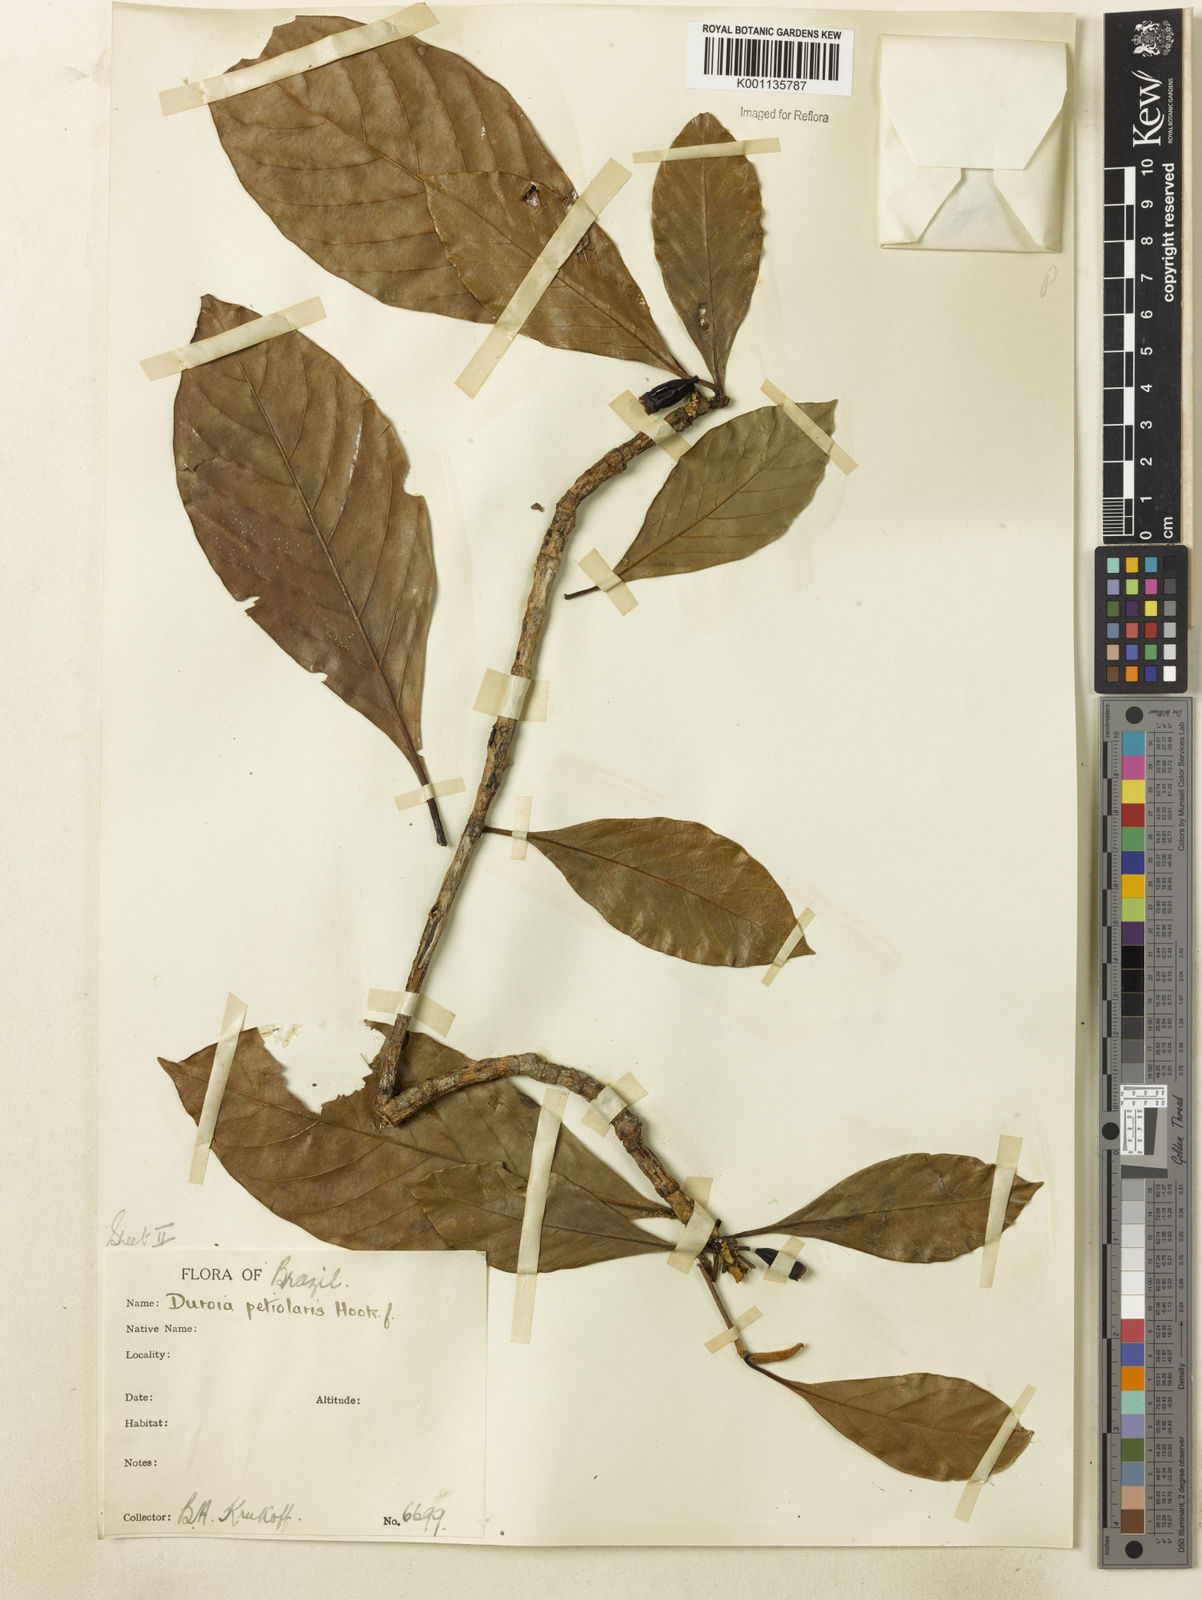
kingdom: Plantae
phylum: Tracheophyta
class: Magnoliopsida
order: Gentianales
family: Rubiaceae
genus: Duroia
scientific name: Duroia petiolaris
